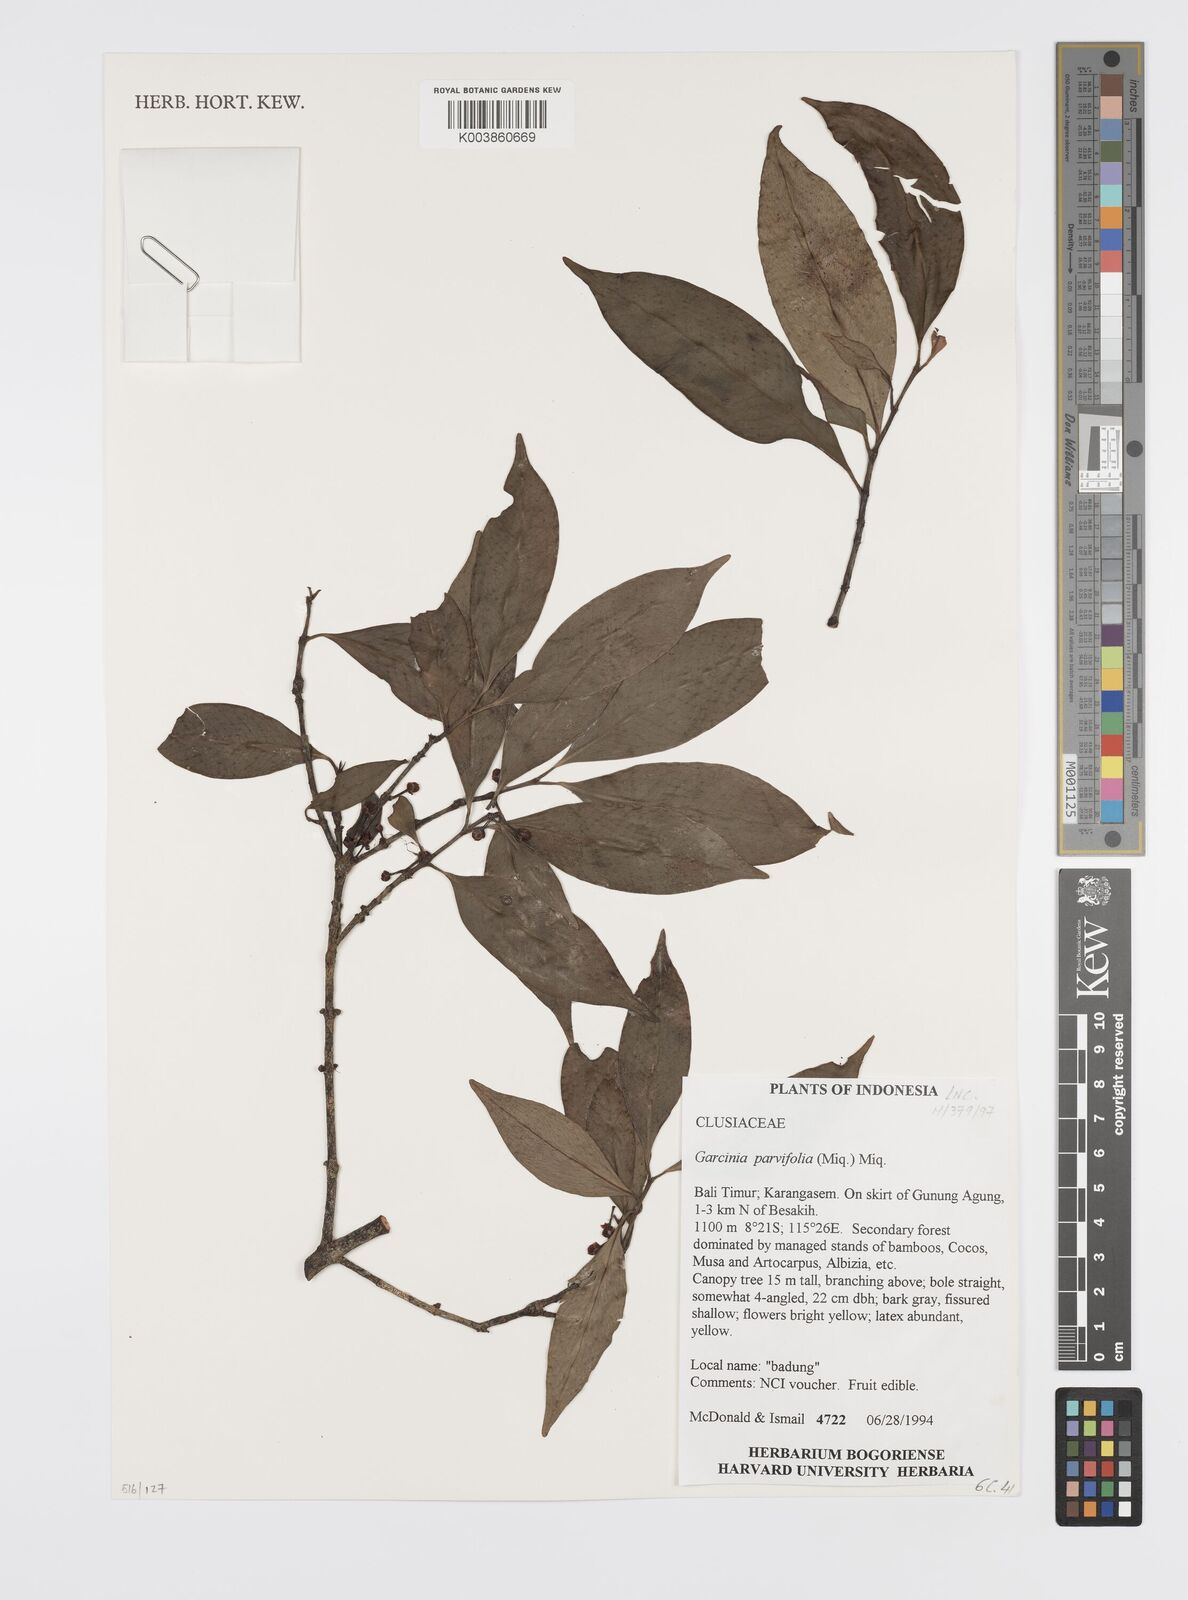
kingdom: Plantae
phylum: Tracheophyta
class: Magnoliopsida
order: Malpighiales
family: Clusiaceae
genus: Garcinia
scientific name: Garcinia parvifolia
